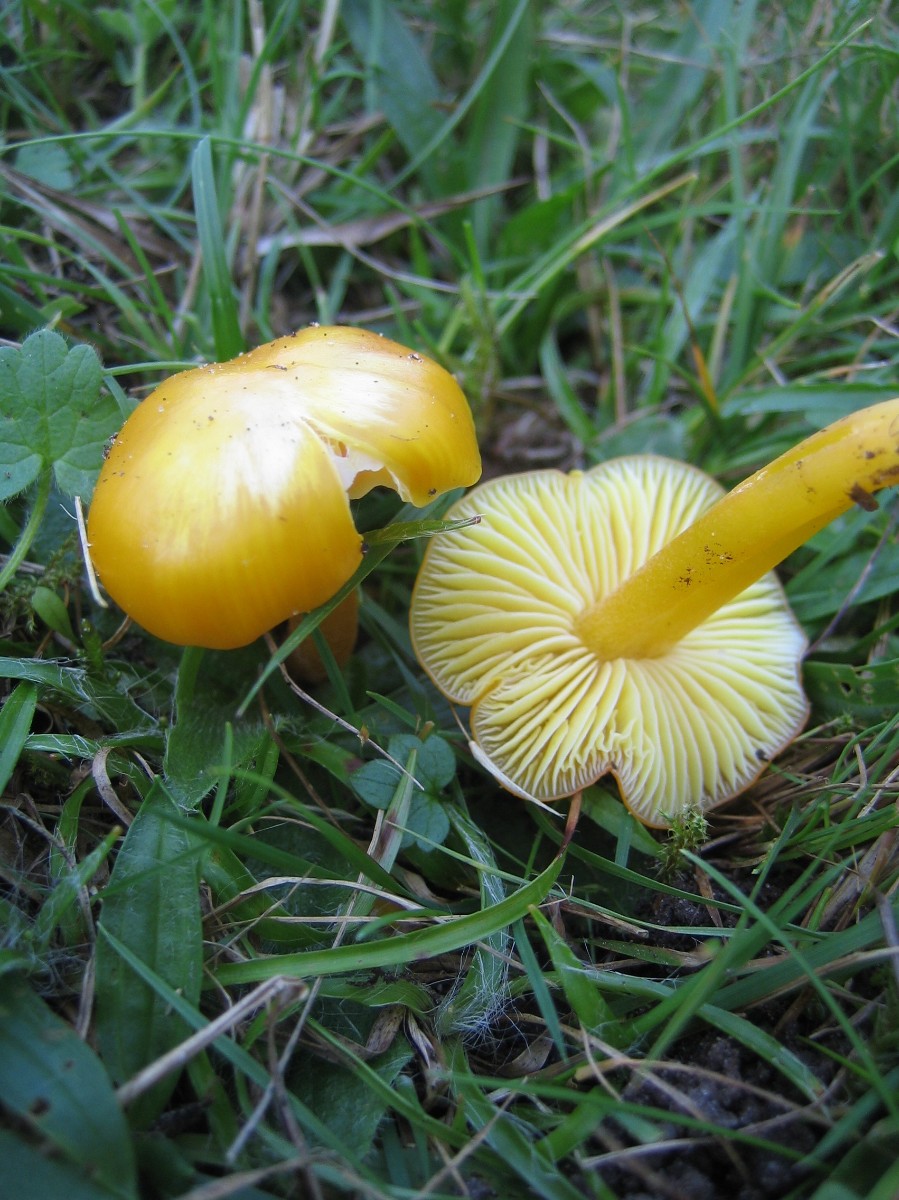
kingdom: Fungi
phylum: Basidiomycota
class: Agaricomycetes
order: Agaricales
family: Hygrophoraceae
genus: Hygrocybe
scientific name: Hygrocybe chlorophana
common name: gul vokshat
